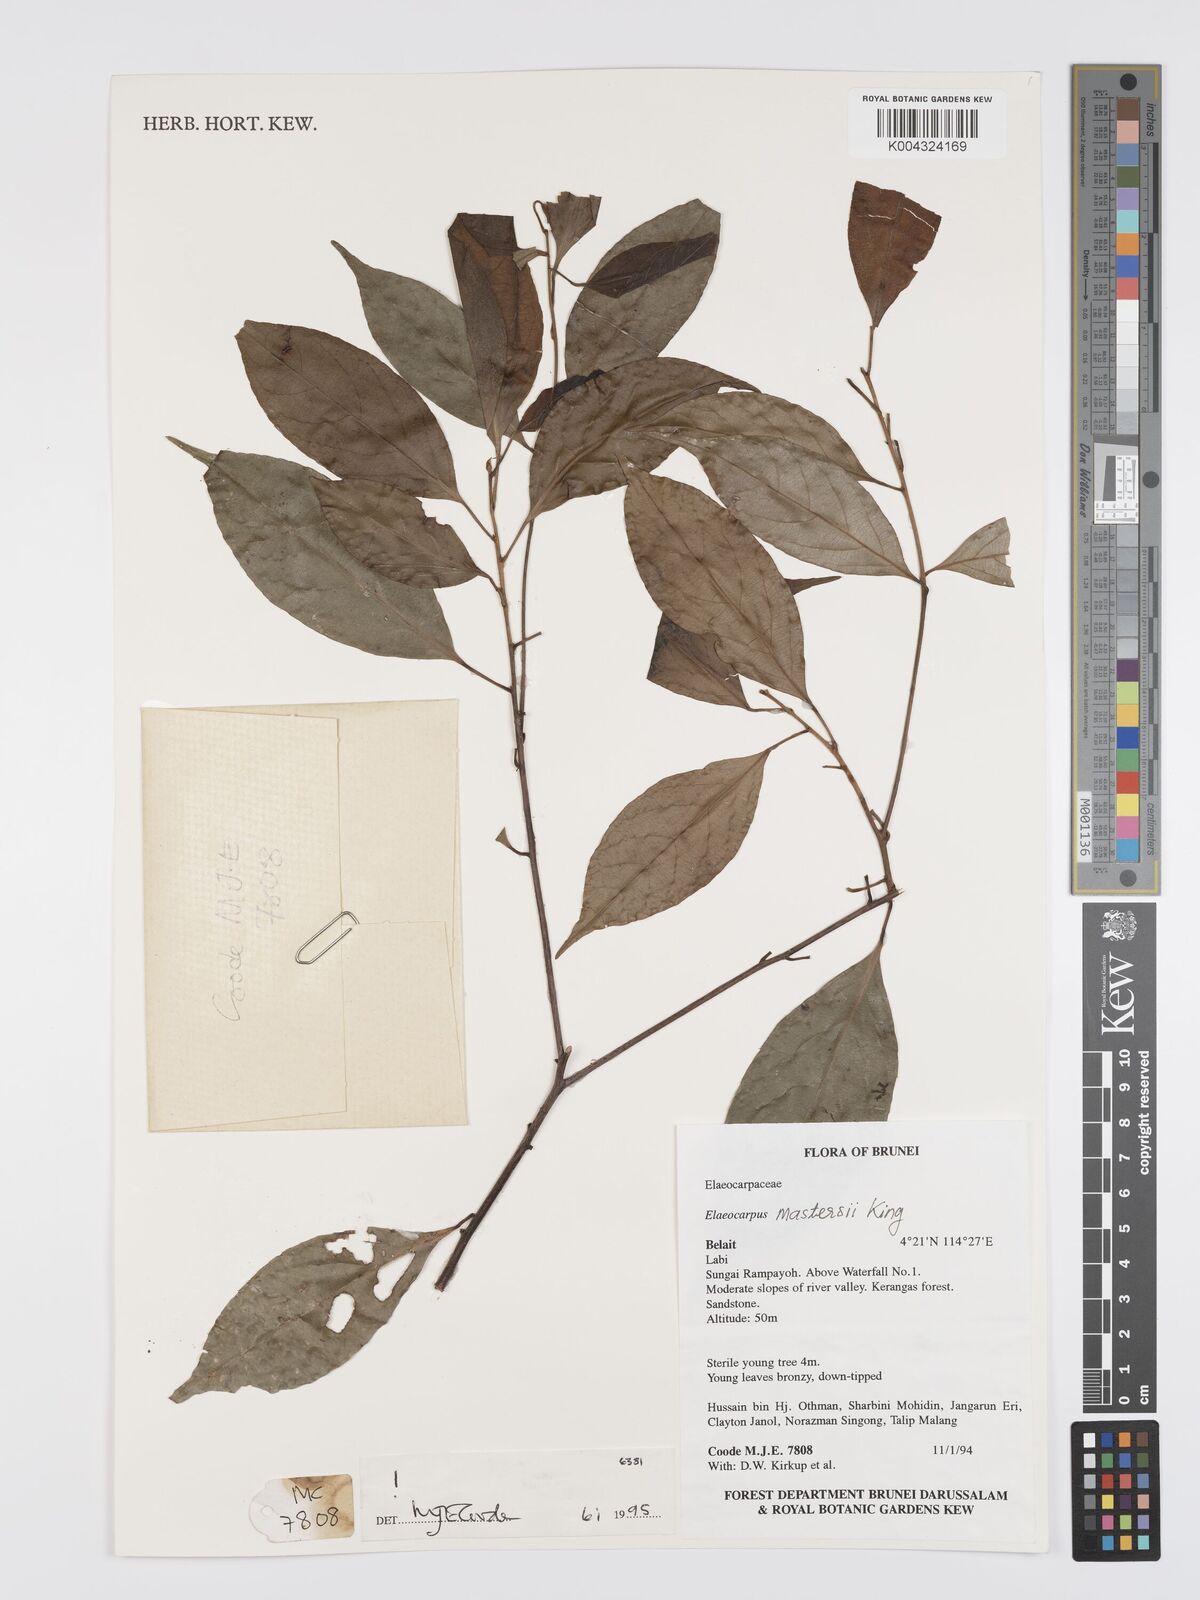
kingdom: Plantae
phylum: Tracheophyta
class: Magnoliopsida
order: Oxalidales
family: Elaeocarpaceae
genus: Elaeocarpus
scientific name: Elaeocarpus mastersii
